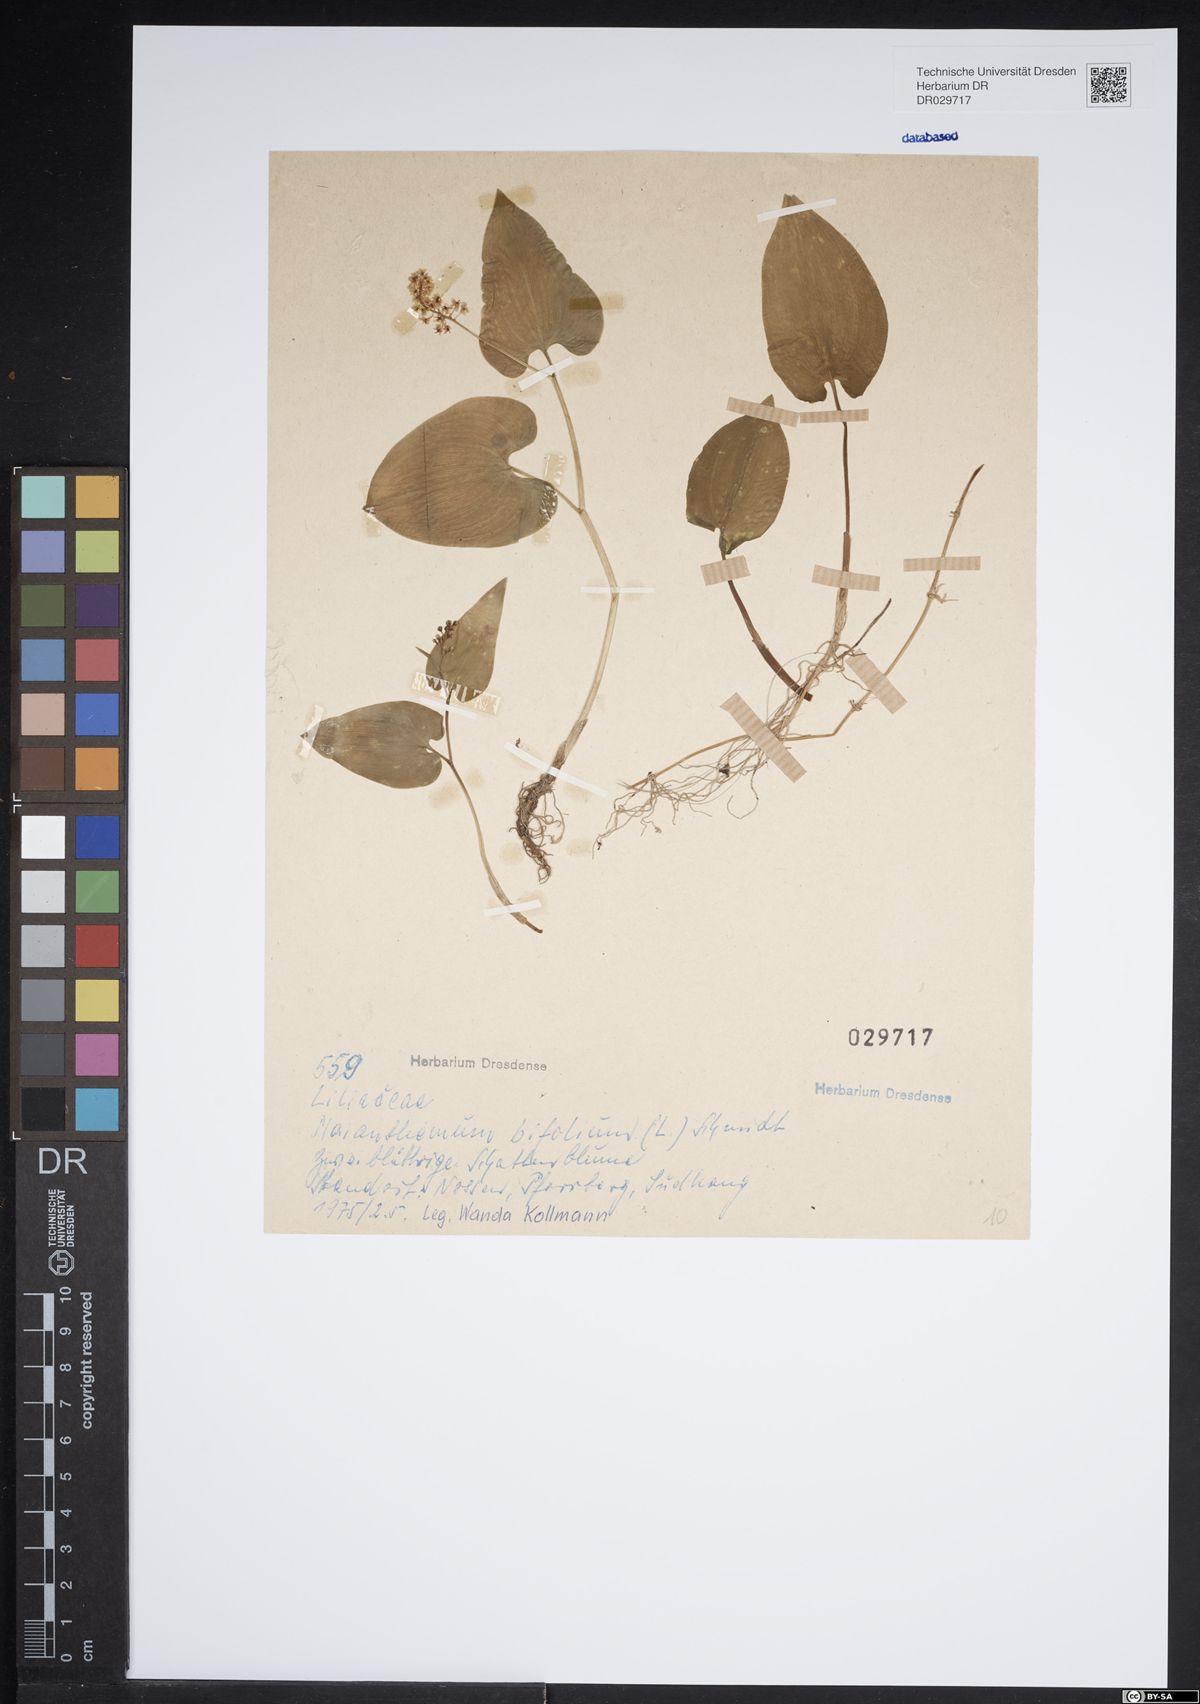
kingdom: Plantae
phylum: Tracheophyta
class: Liliopsida
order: Asparagales
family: Asparagaceae
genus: Maianthemum
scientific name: Maianthemum bifolium
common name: May lily
